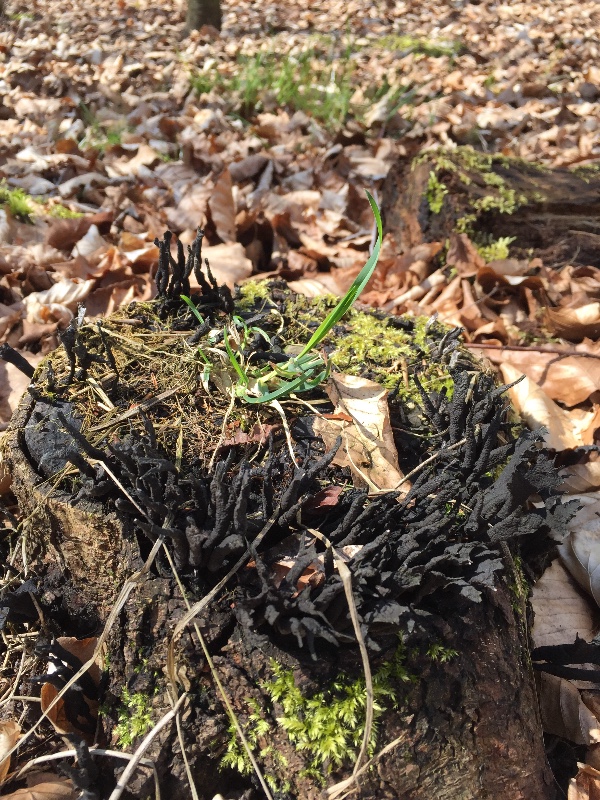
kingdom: Fungi
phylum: Ascomycota
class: Sordariomycetes
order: Xylariales
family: Xylariaceae
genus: Xylaria
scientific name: Xylaria hypoxylon
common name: grenet stødsvamp
